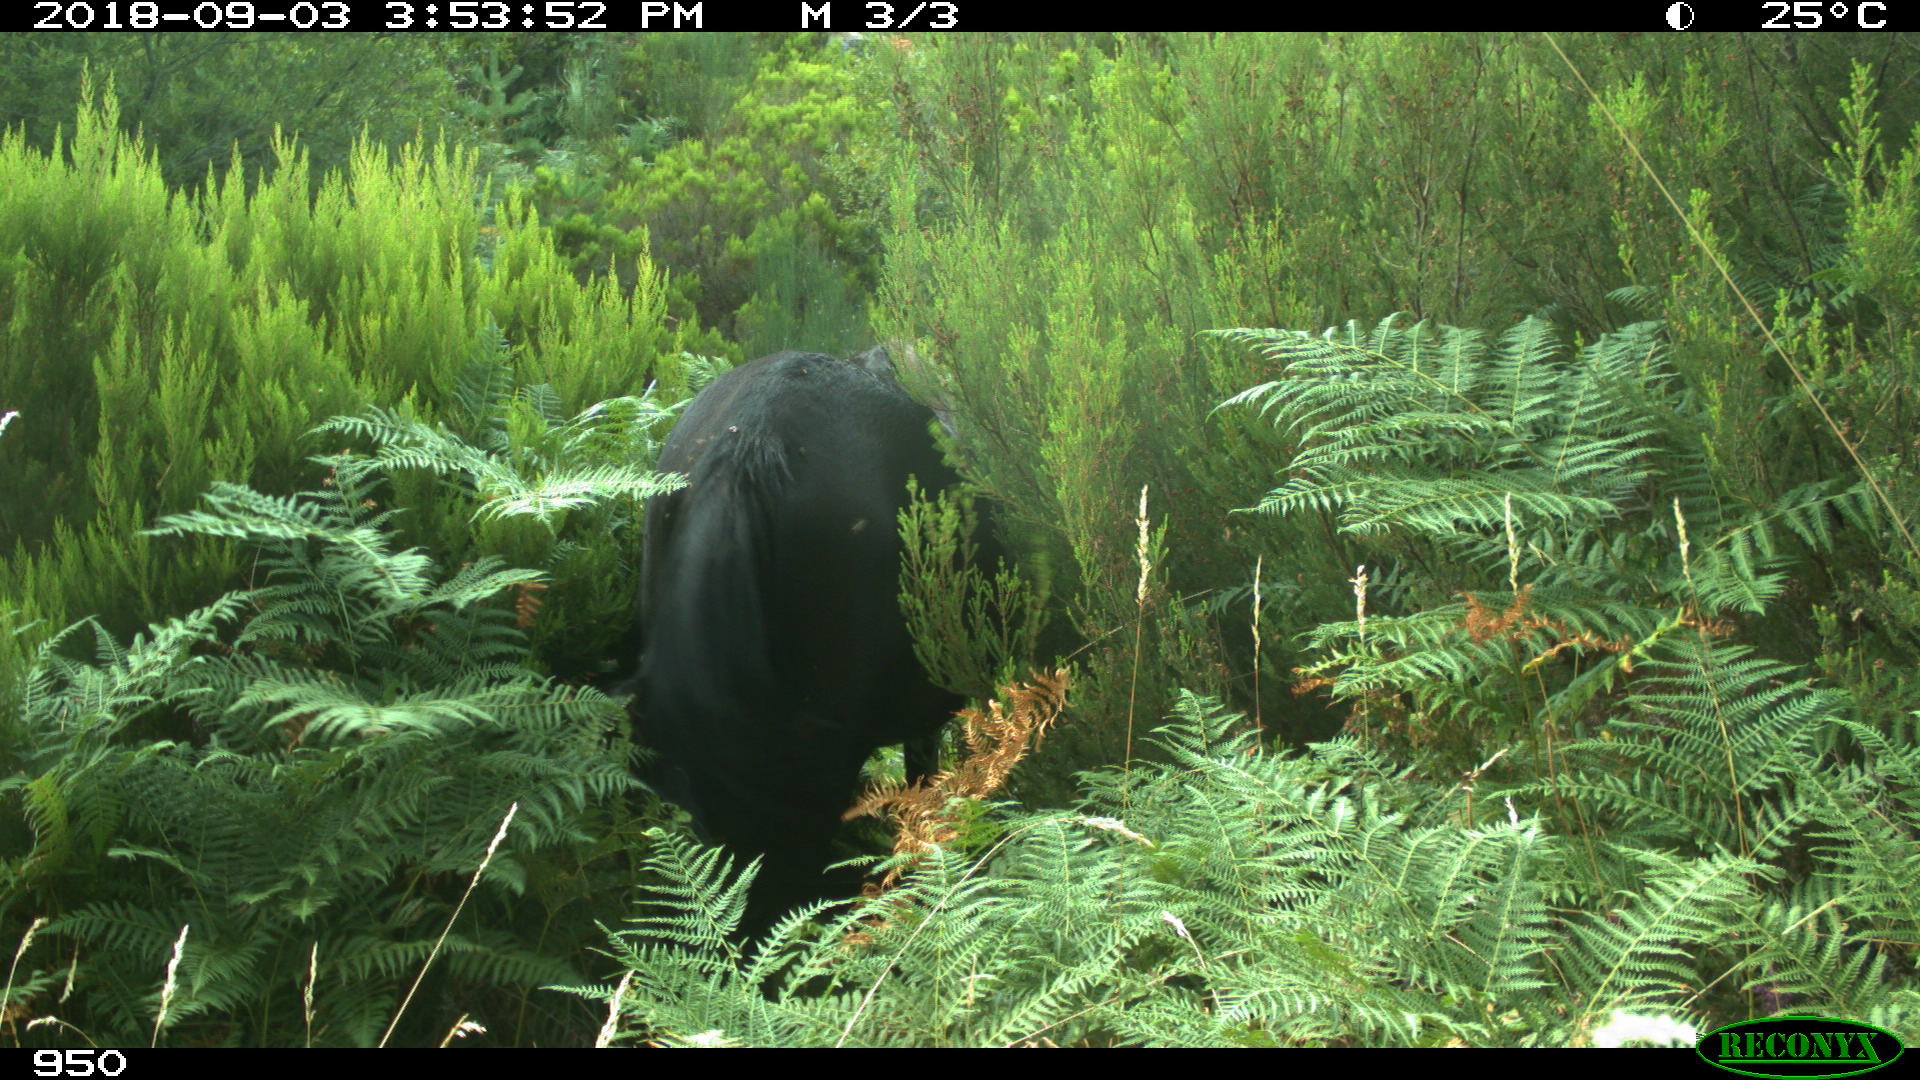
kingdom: Animalia
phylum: Chordata
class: Mammalia
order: Perissodactyla
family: Equidae
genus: Equus
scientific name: Equus caballus
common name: Horse
